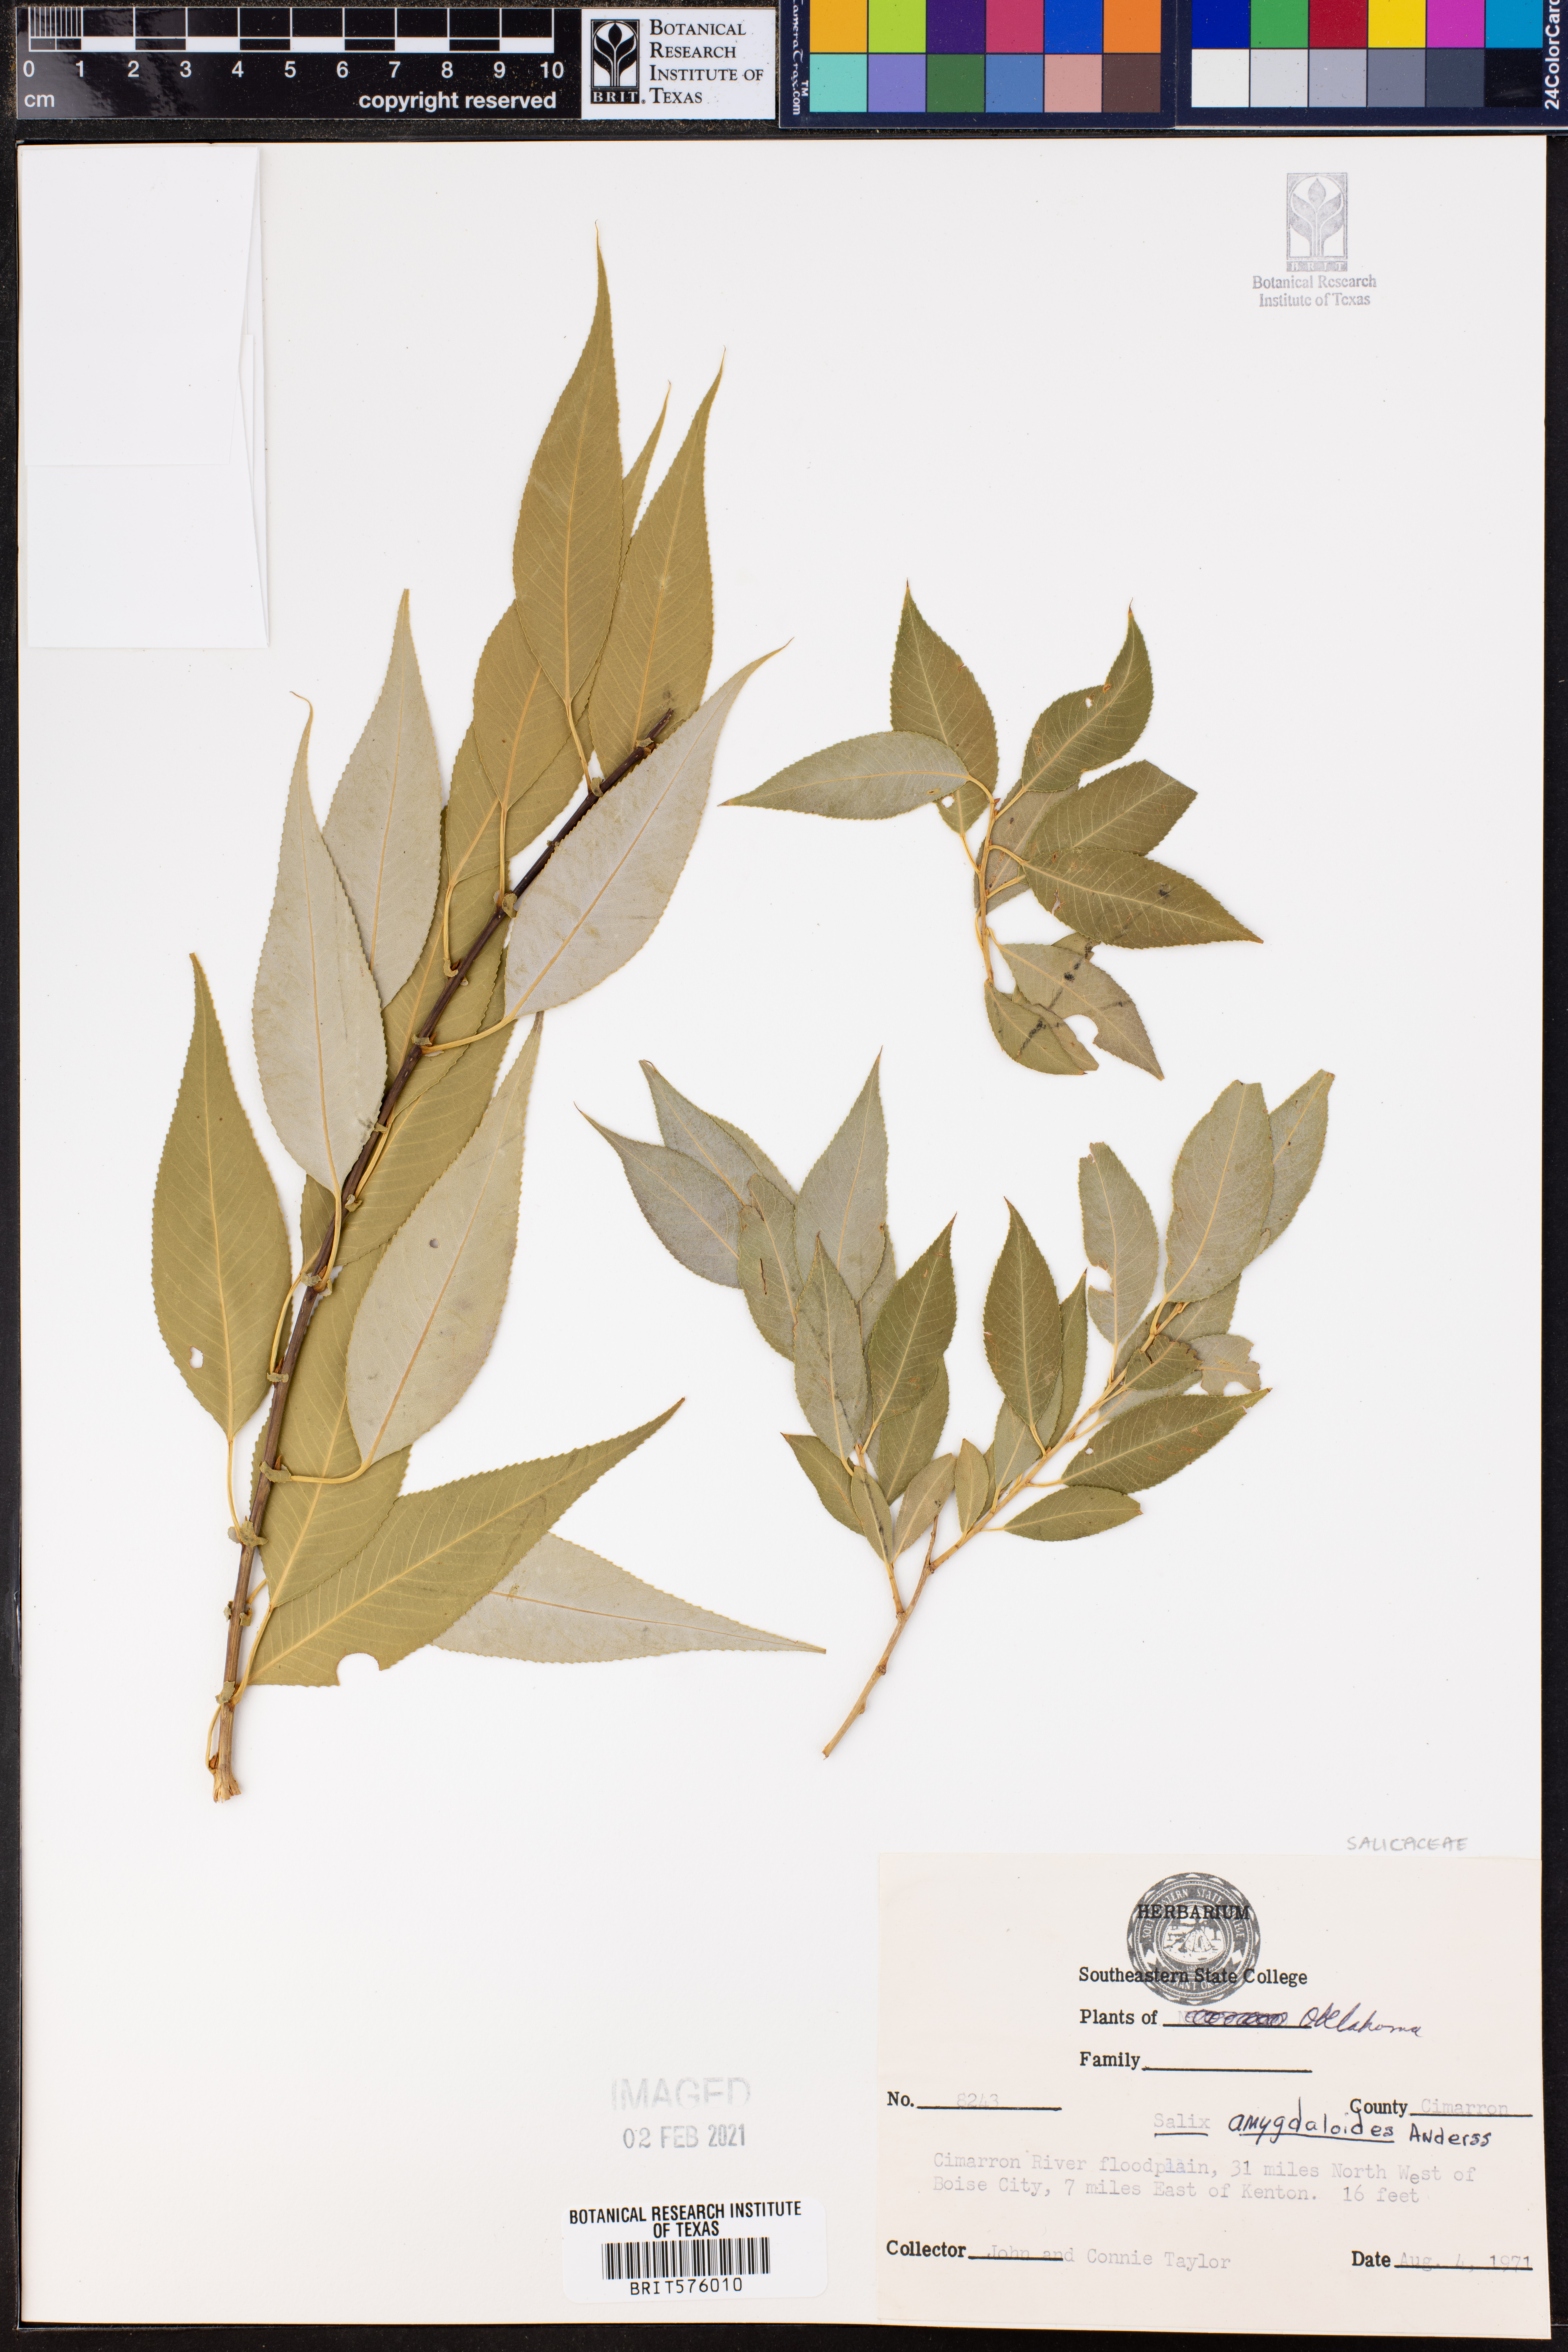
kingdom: Plantae
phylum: Tracheophyta
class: Magnoliopsida
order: Malpighiales
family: Salicaceae
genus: Salix
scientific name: Salix amygdaloides
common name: Peach leaf willow
